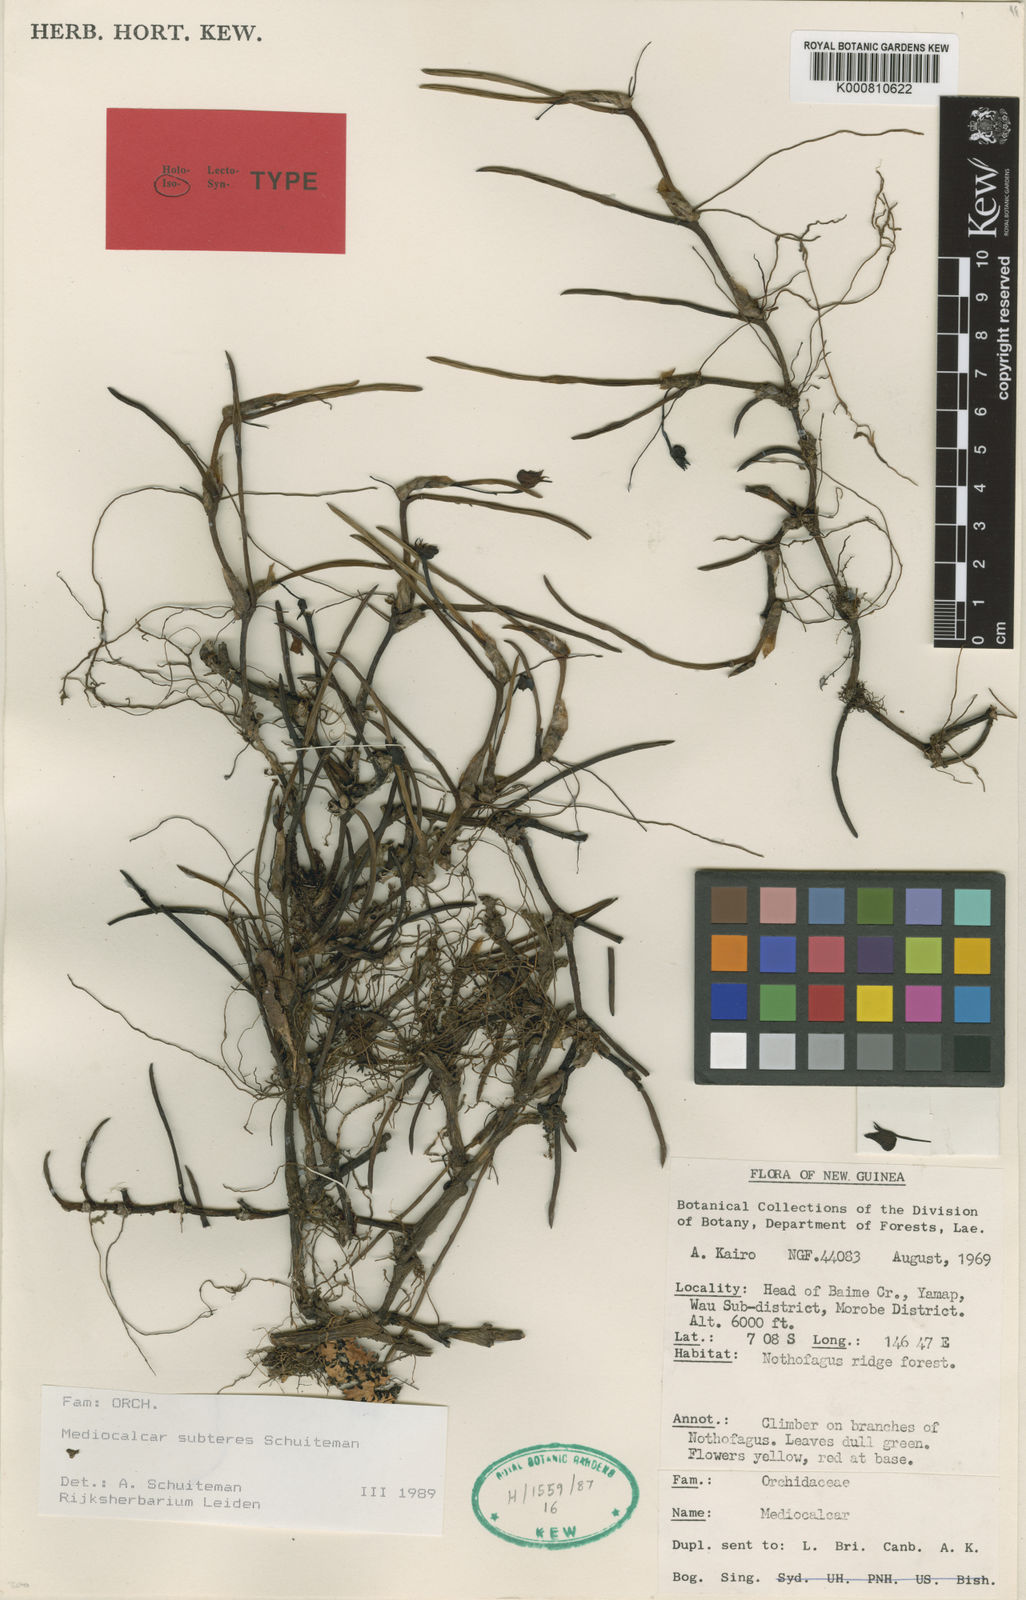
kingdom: Plantae
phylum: Tracheophyta
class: Liliopsida
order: Asparagales
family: Orchidaceae
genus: Mediocalcar
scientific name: Mediocalcar subteres
